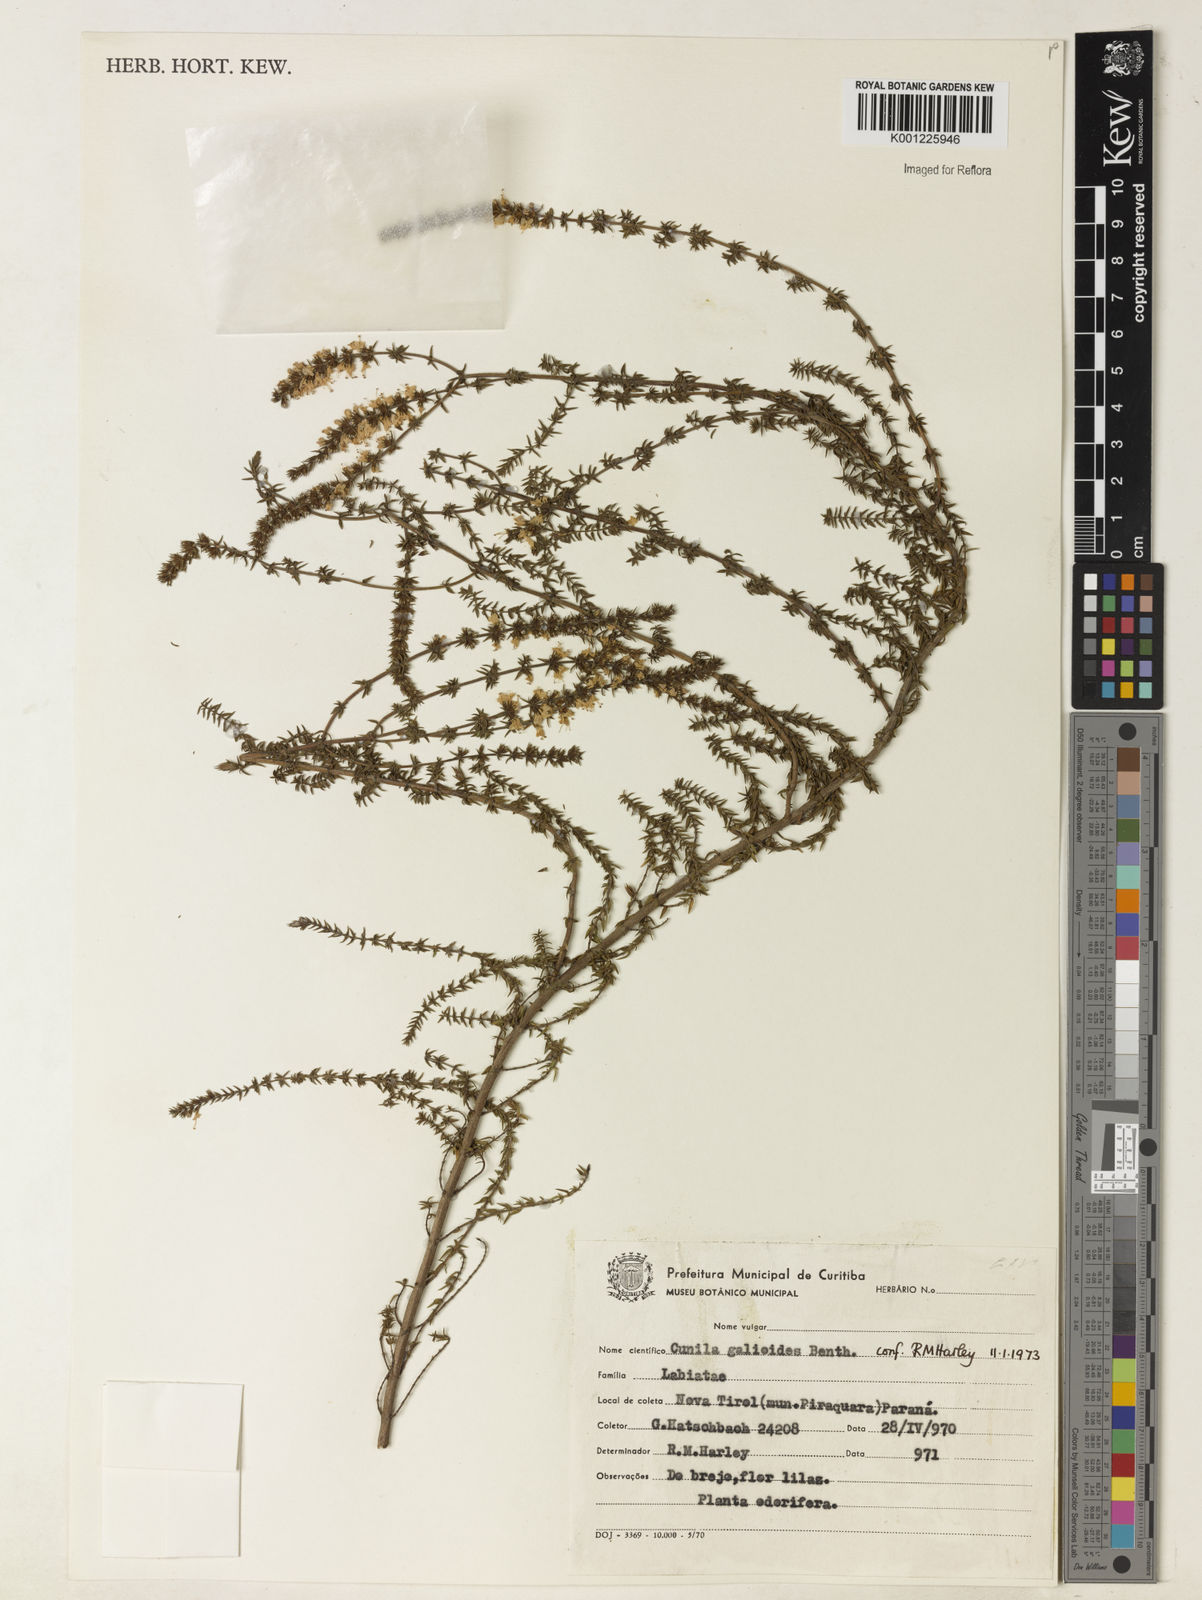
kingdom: Plantae
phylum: Tracheophyta
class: Magnoliopsida
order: Lamiales
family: Lamiaceae
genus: Cunila
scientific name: Cunila galioides
